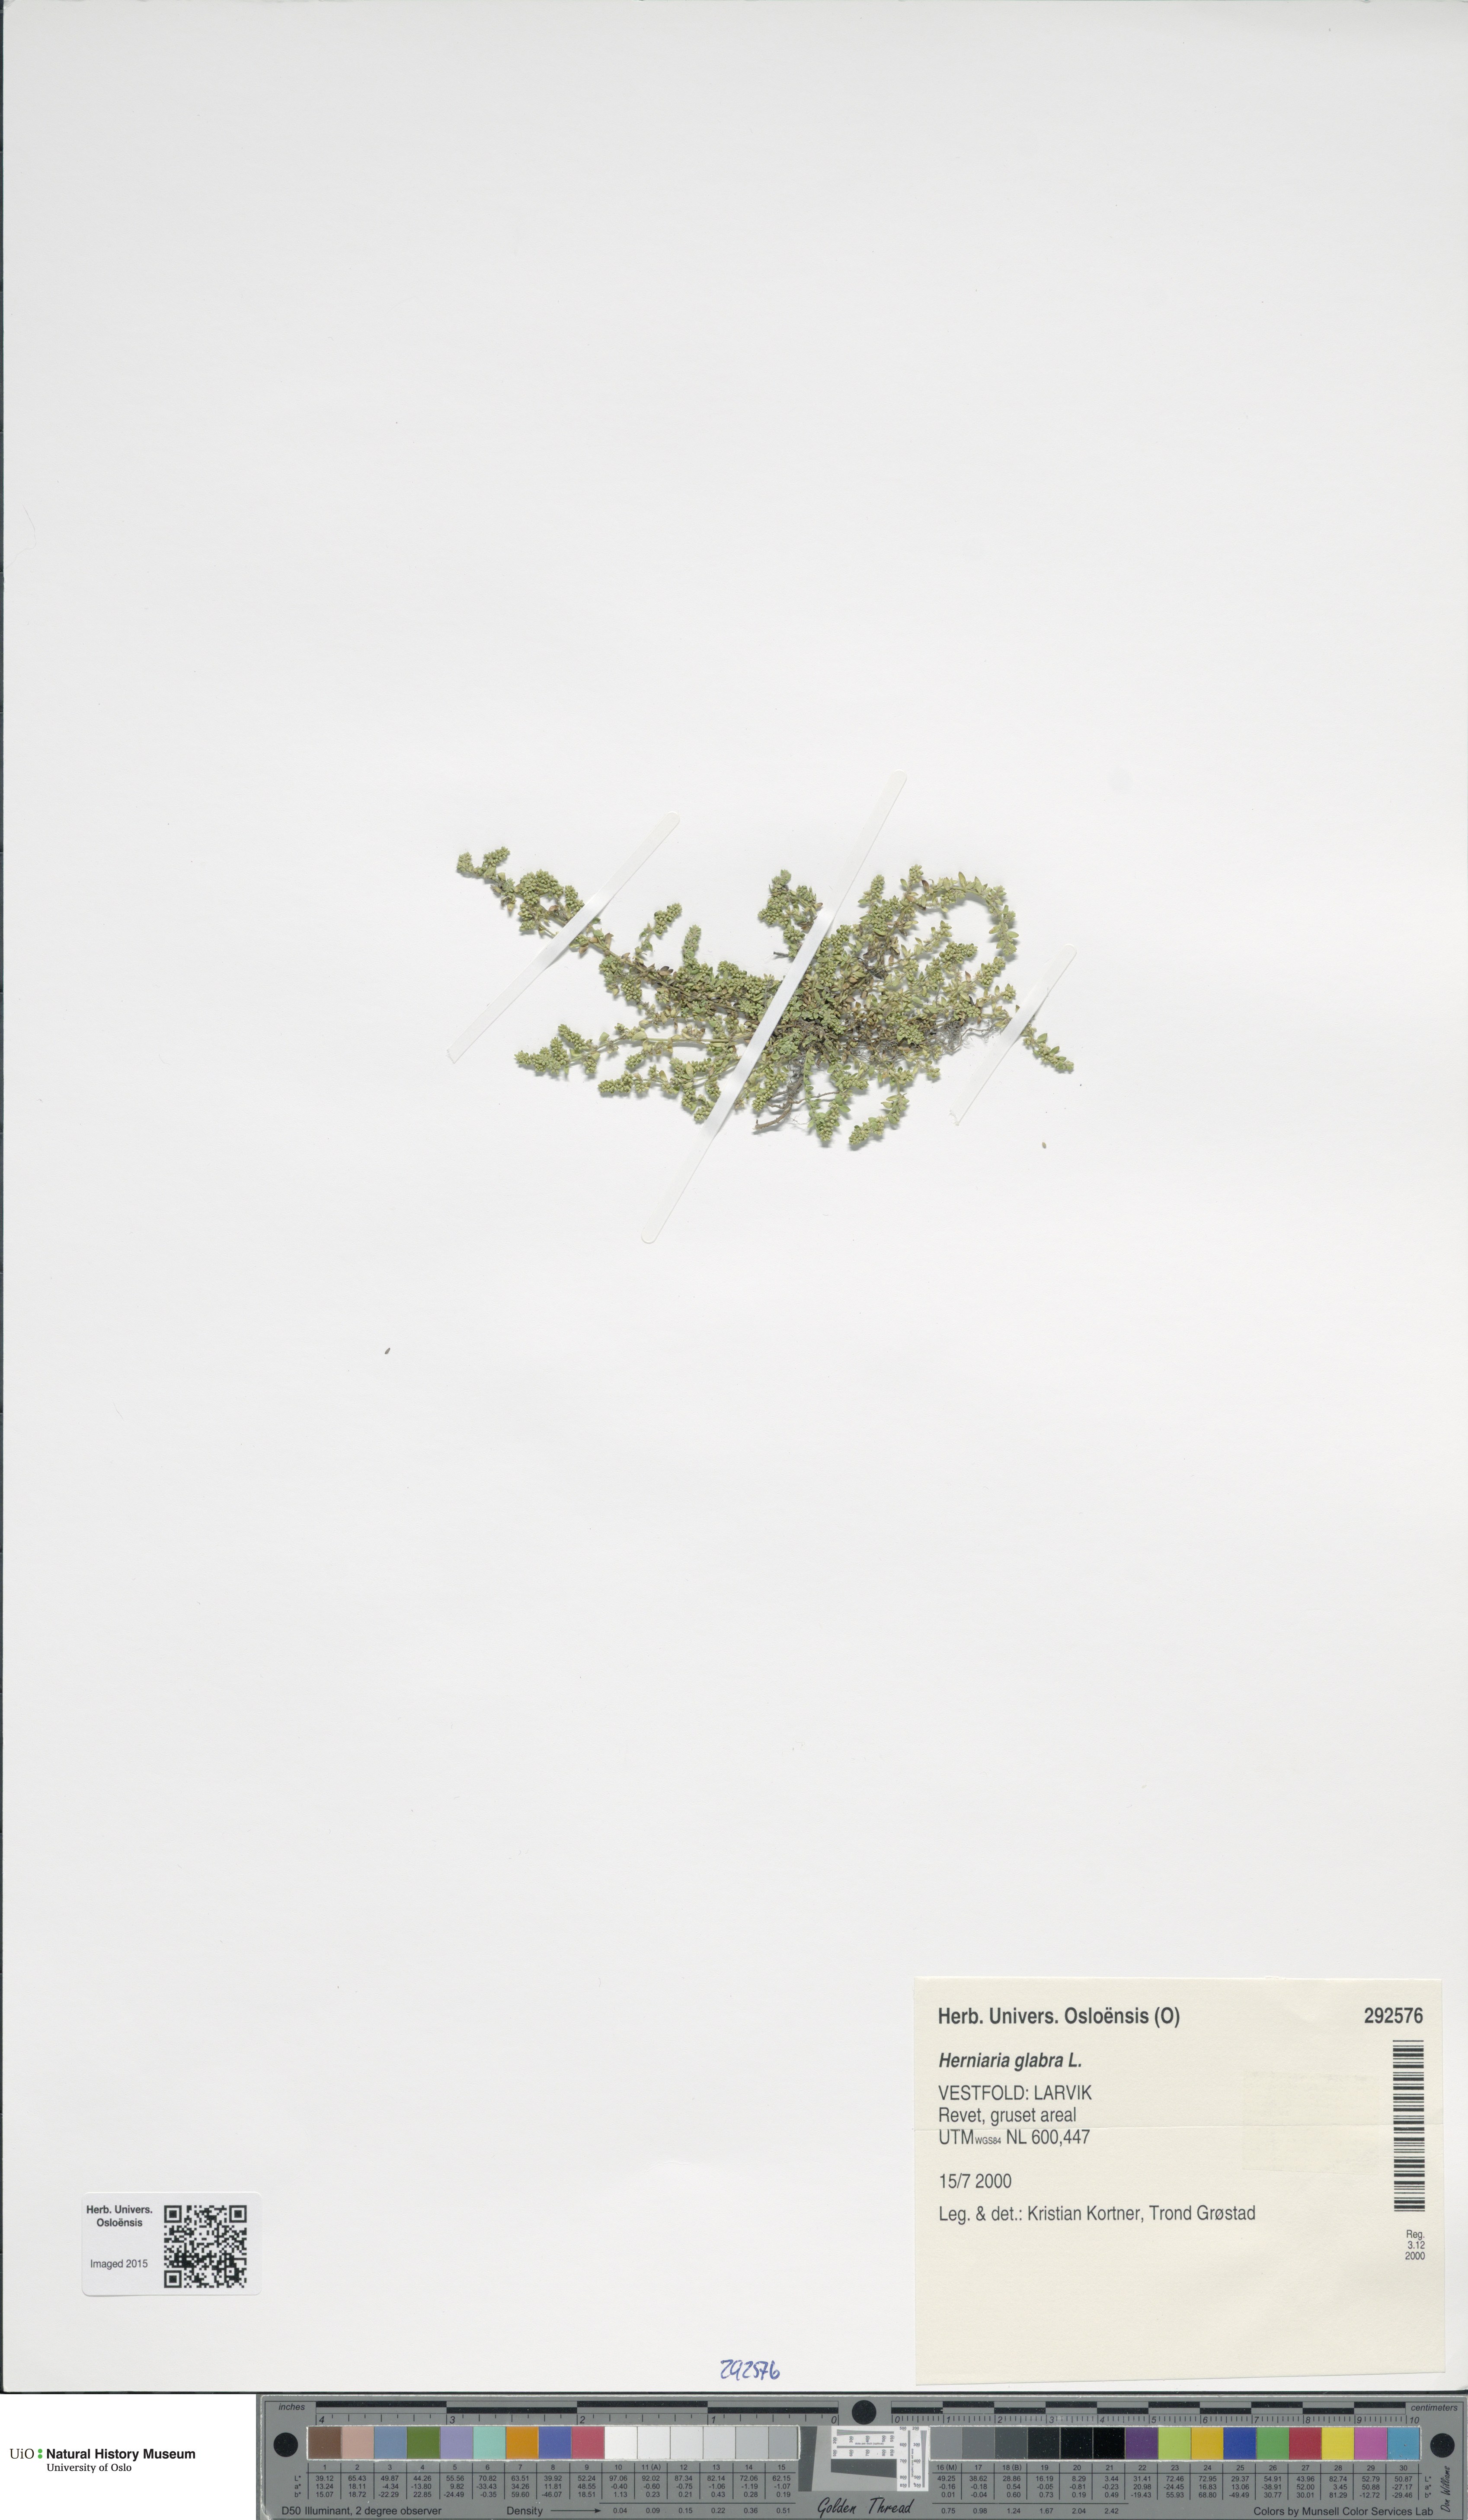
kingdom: Plantae
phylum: Tracheophyta
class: Magnoliopsida
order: Caryophyllales
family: Caryophyllaceae
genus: Herniaria
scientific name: Herniaria glabra
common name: Smooth rupturewort
